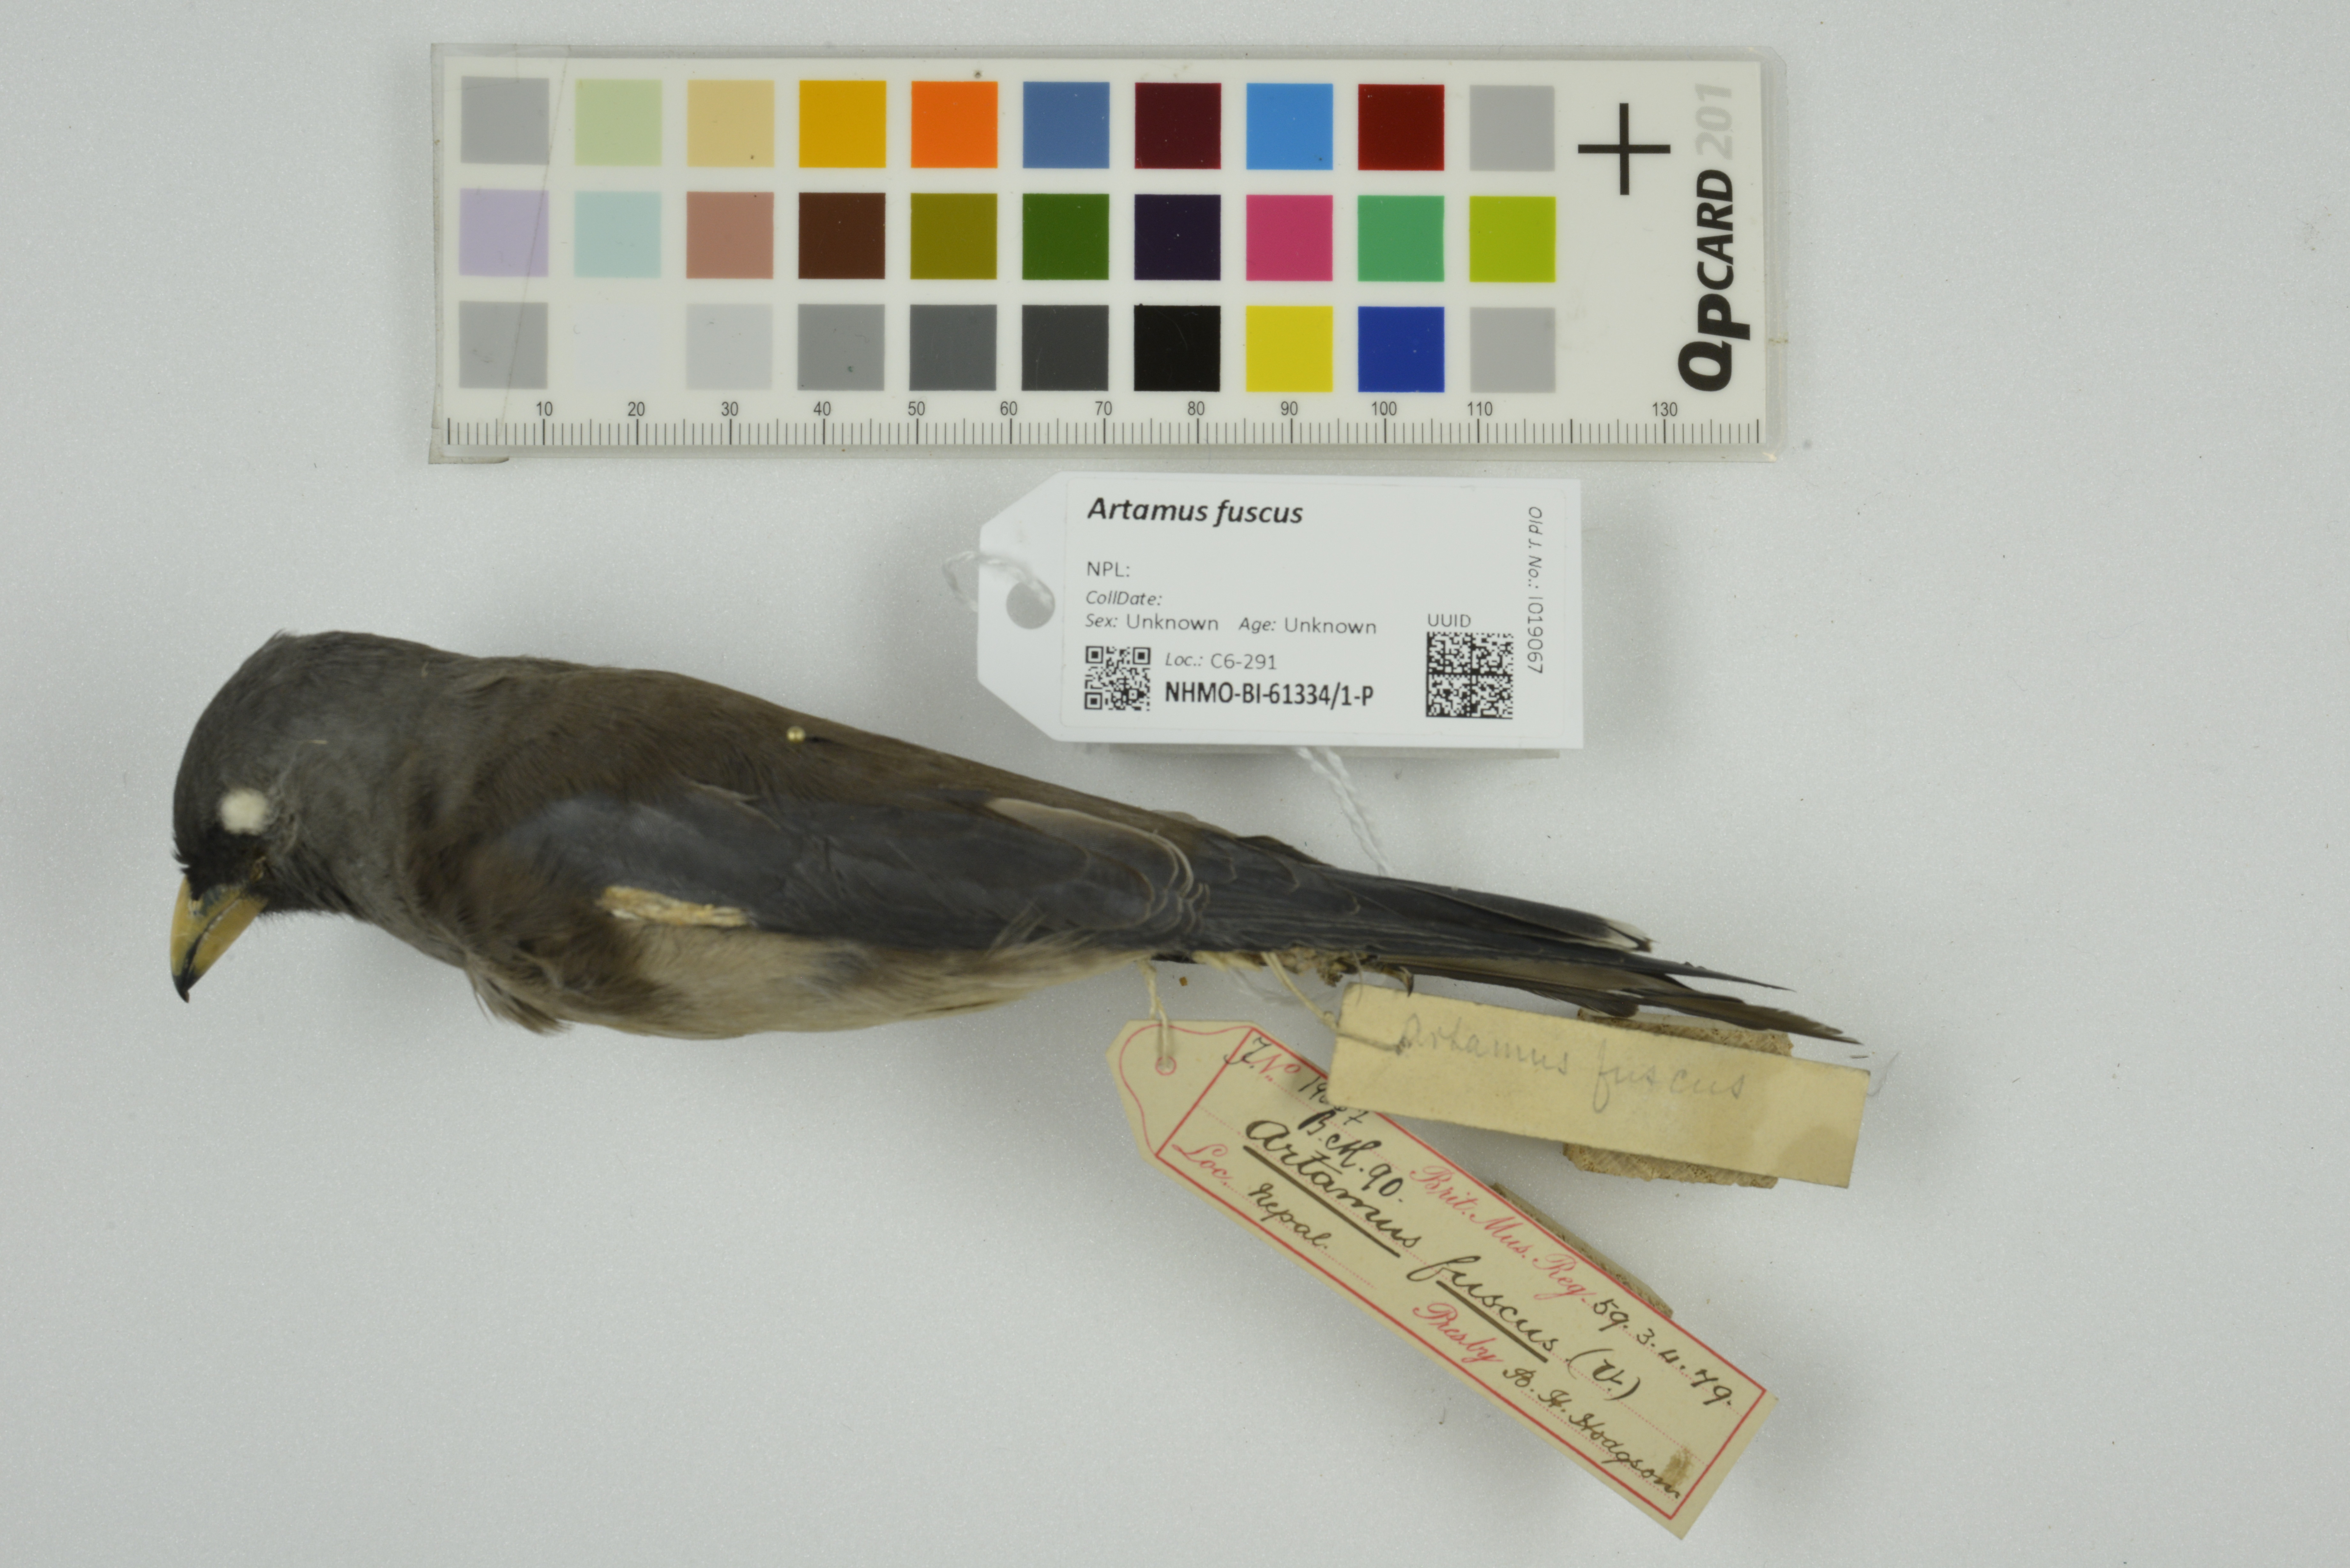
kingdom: Animalia
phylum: Chordata
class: Aves
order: Passeriformes
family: Artamidae
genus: Artamus
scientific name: Artamus fuscus
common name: Ashy woodswallow
